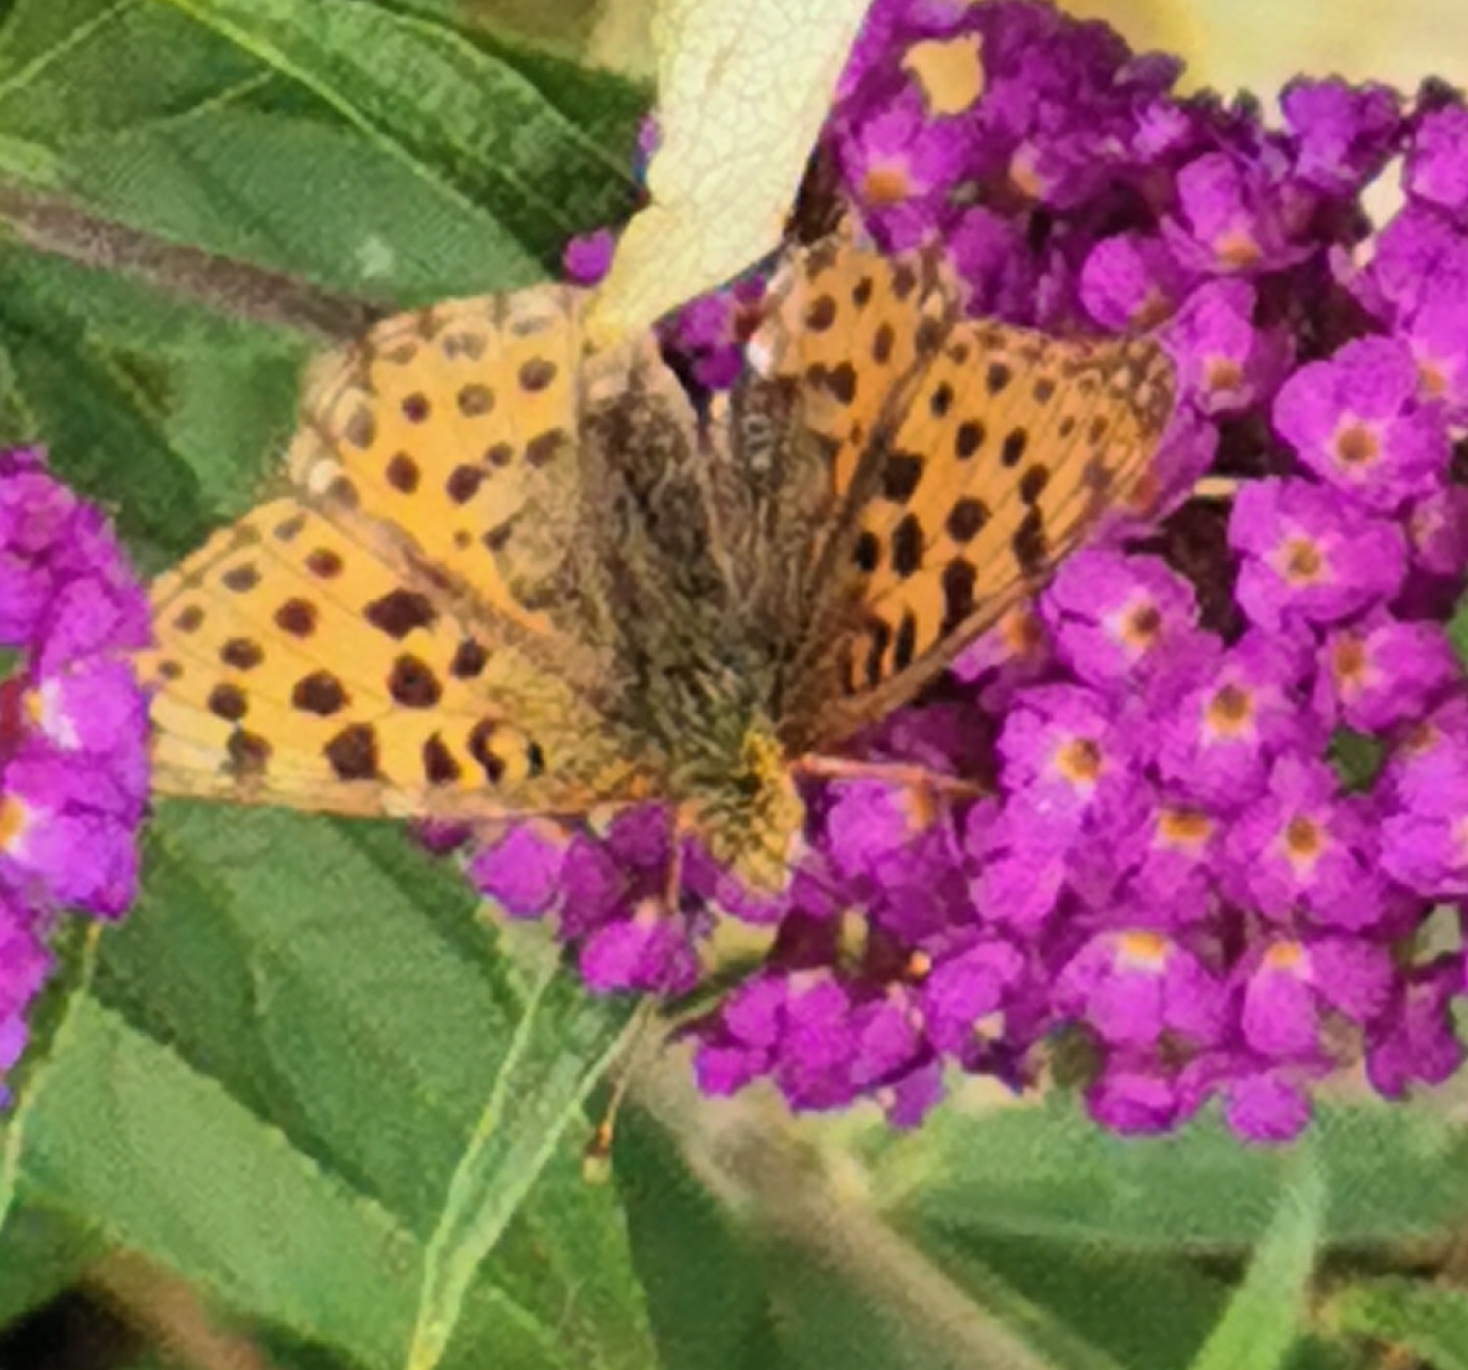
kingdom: Animalia
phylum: Arthropoda
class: Insecta
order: Lepidoptera
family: Nymphalidae
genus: Issoria
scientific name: Issoria lathonia
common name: Storplettet perlemorsommerfugl
